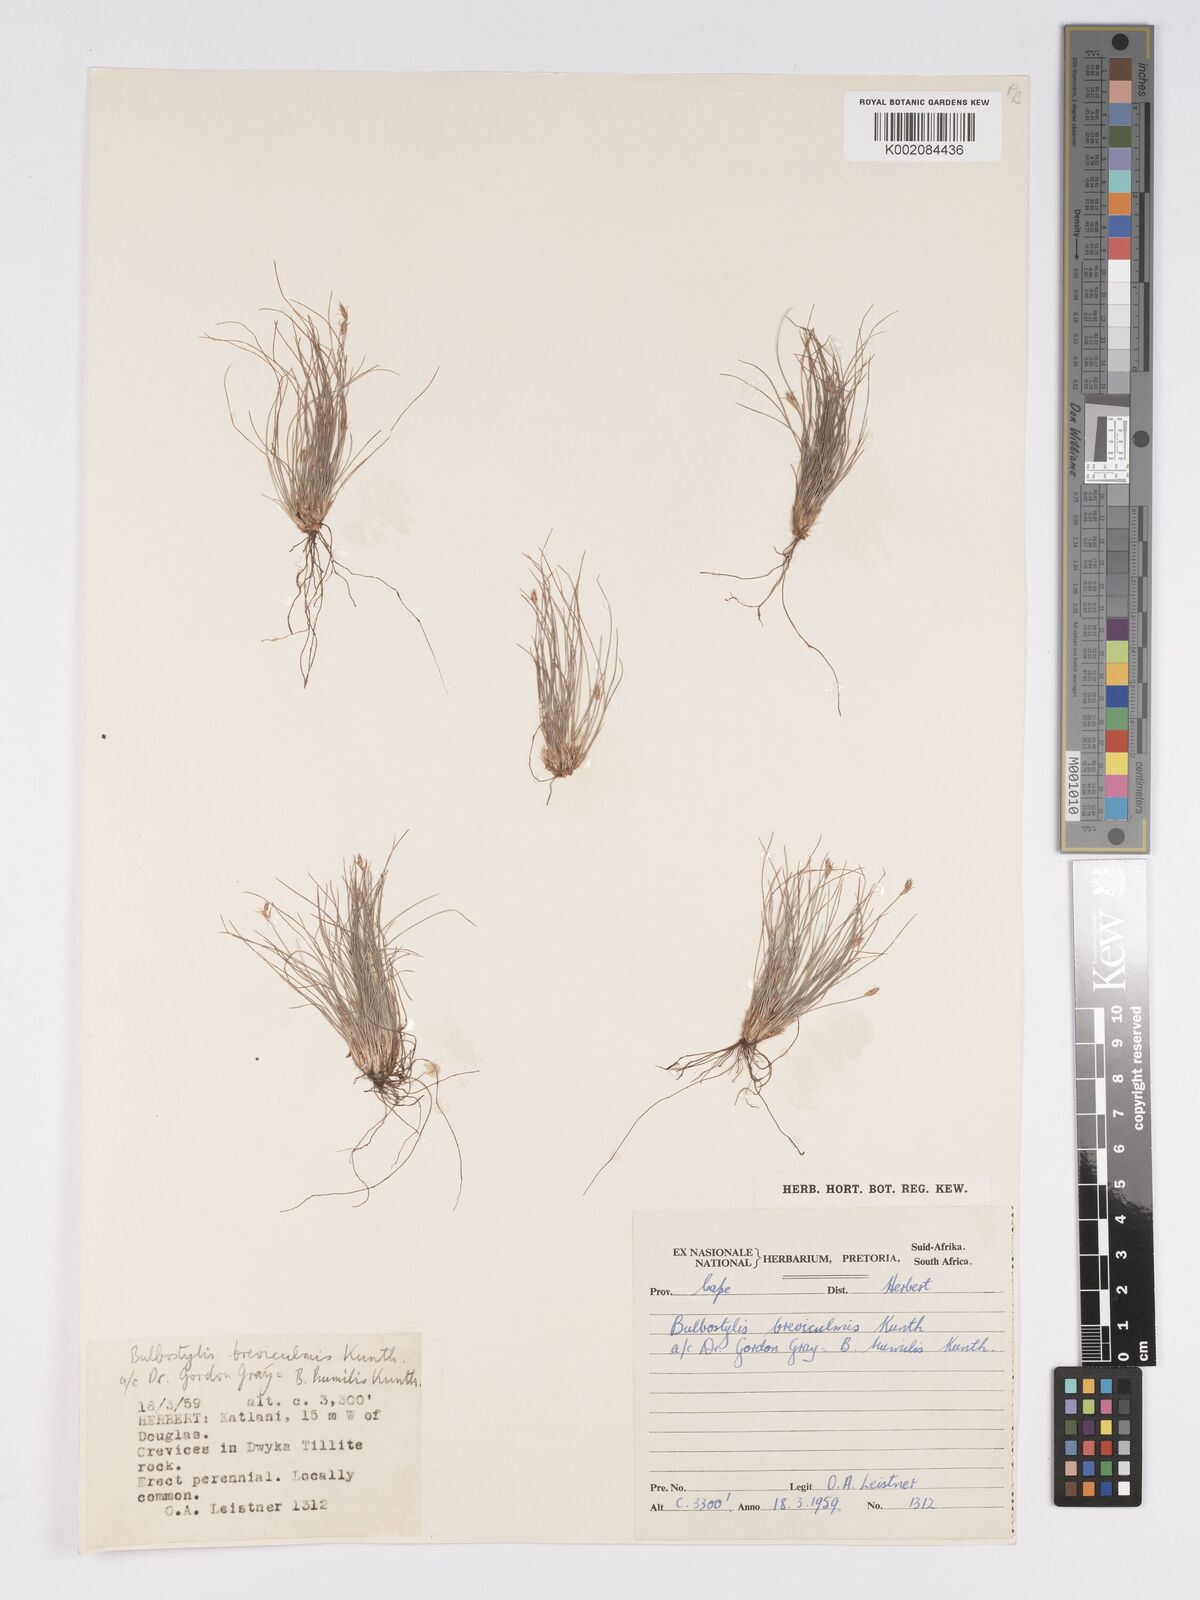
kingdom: Plantae
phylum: Tracheophyta
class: Liliopsida
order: Poales
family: Cyperaceae
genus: Bulbostylis
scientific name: Bulbostylis humilis
